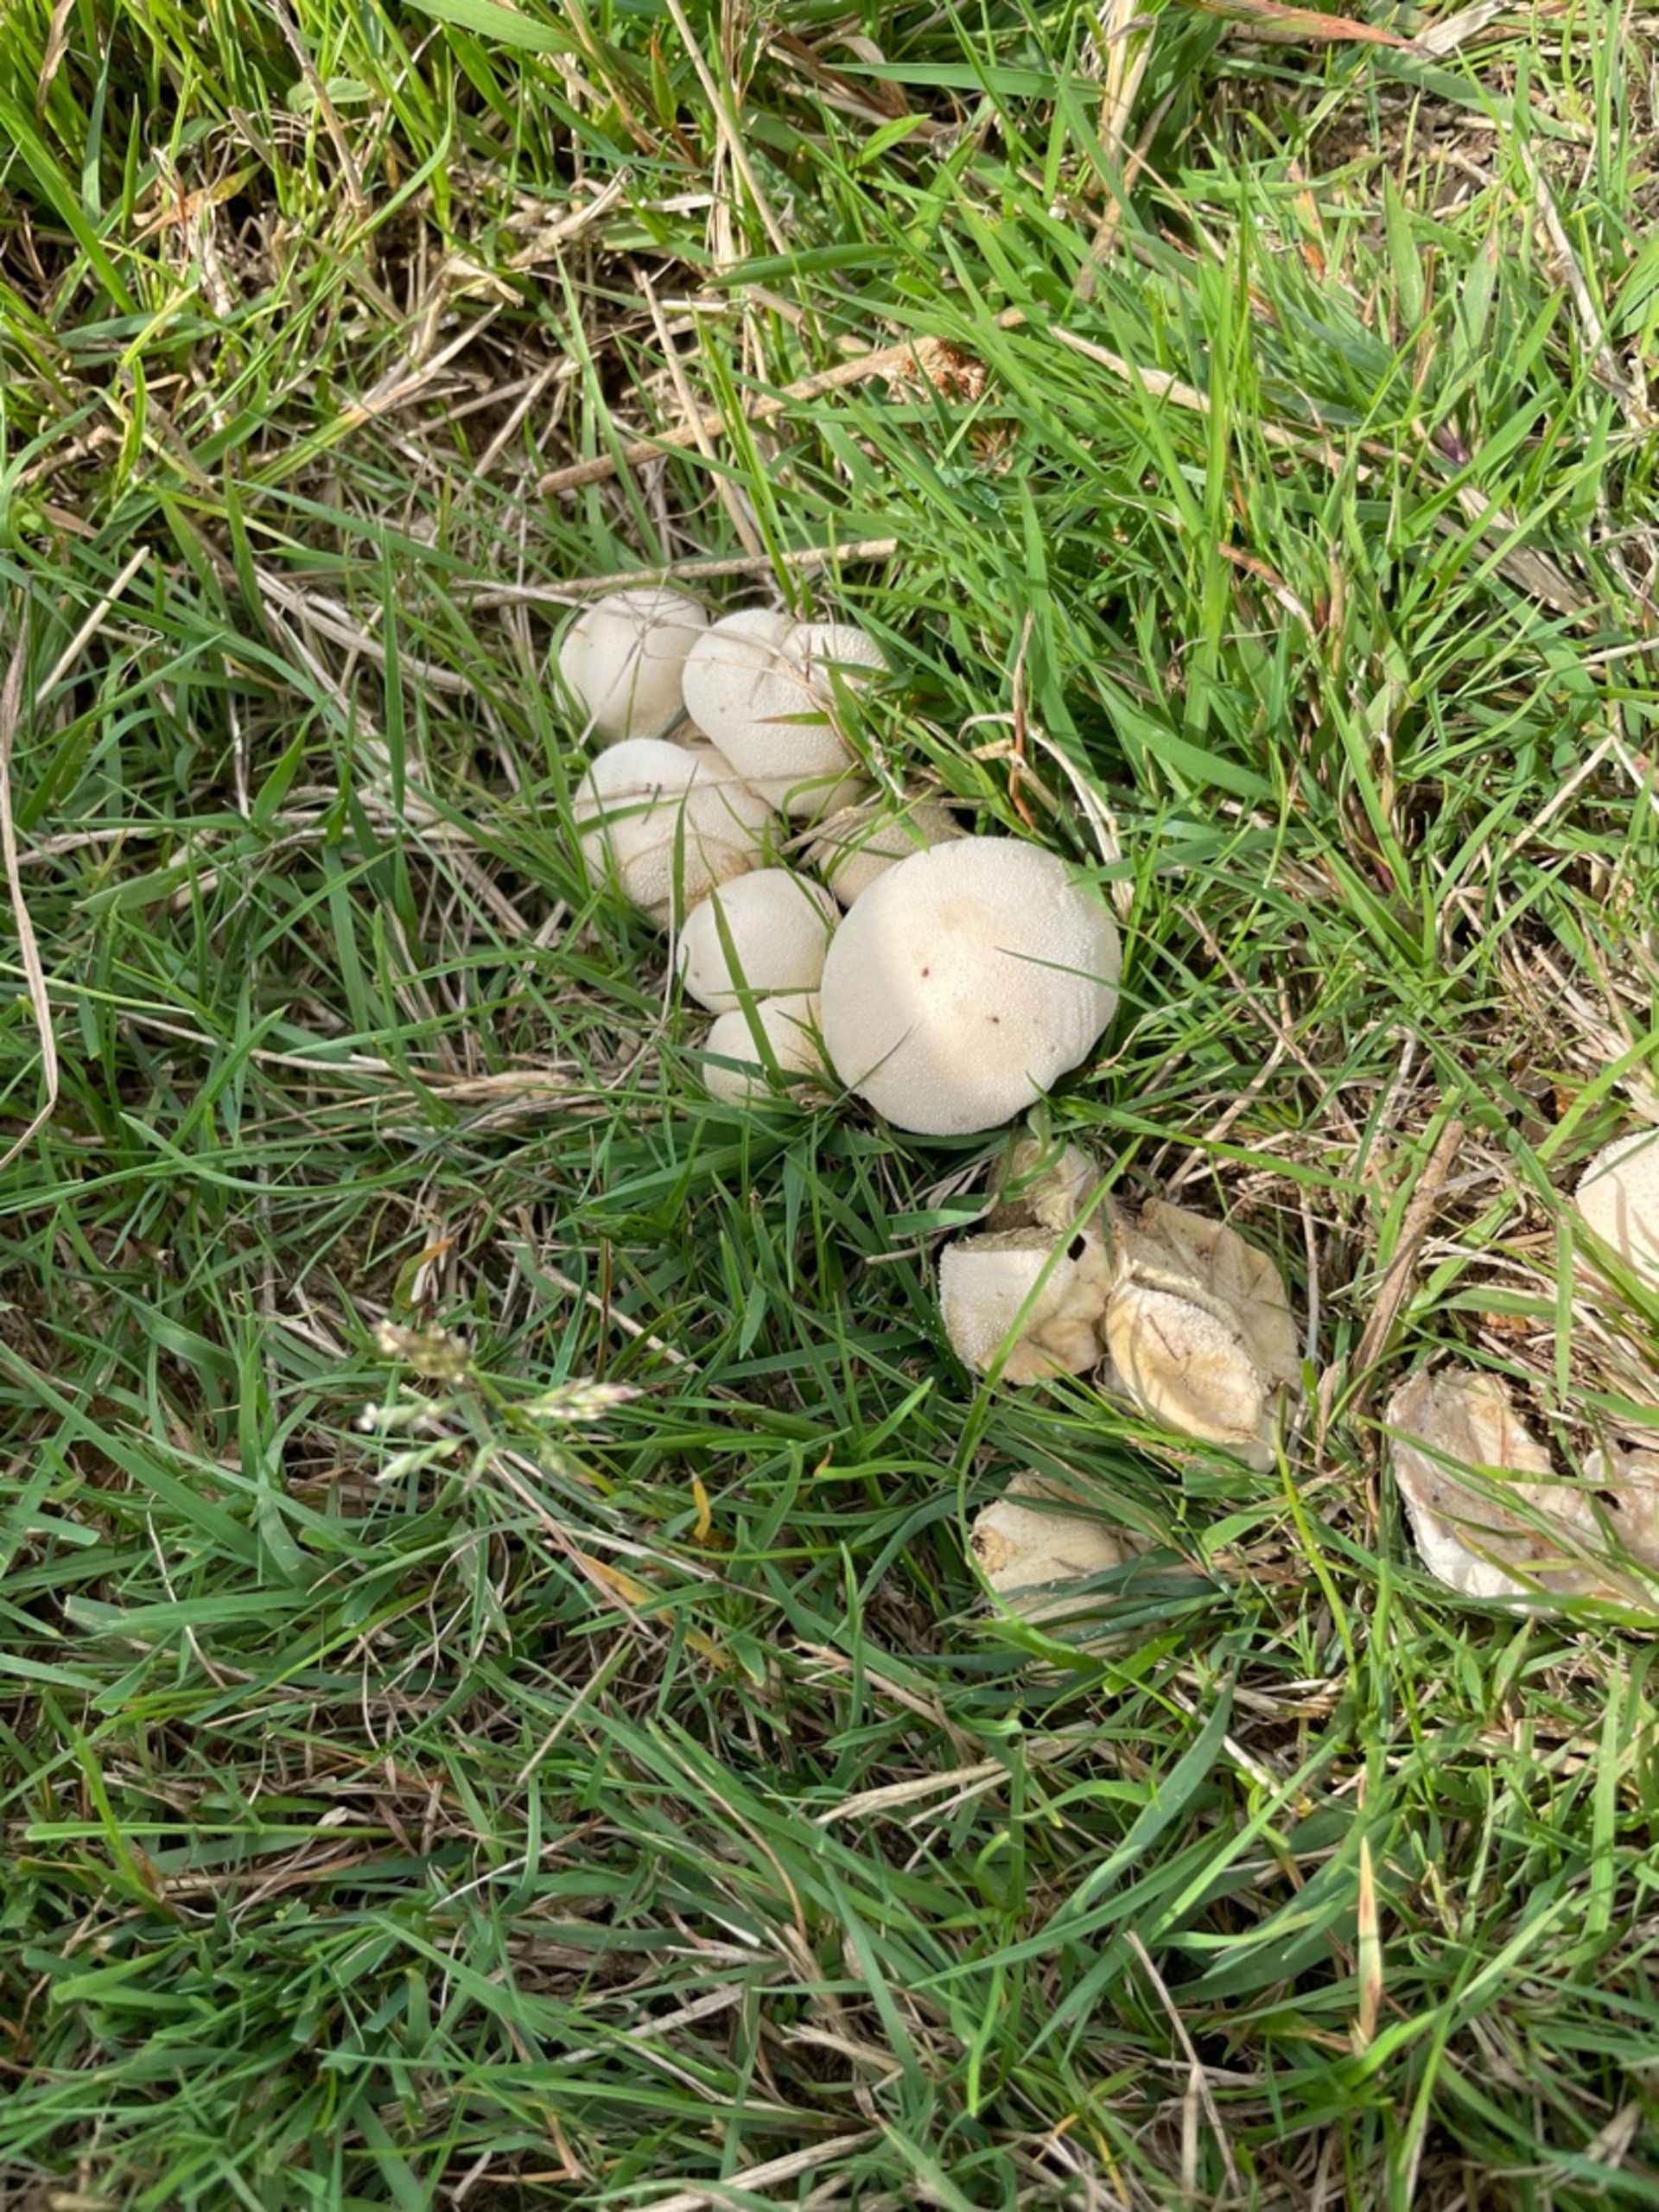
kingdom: Fungi
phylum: Basidiomycota
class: Agaricomycetes
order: Agaricales
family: Lycoperdaceae
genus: Lycoperdon
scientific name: Lycoperdon pratense
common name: Flad støvbold
